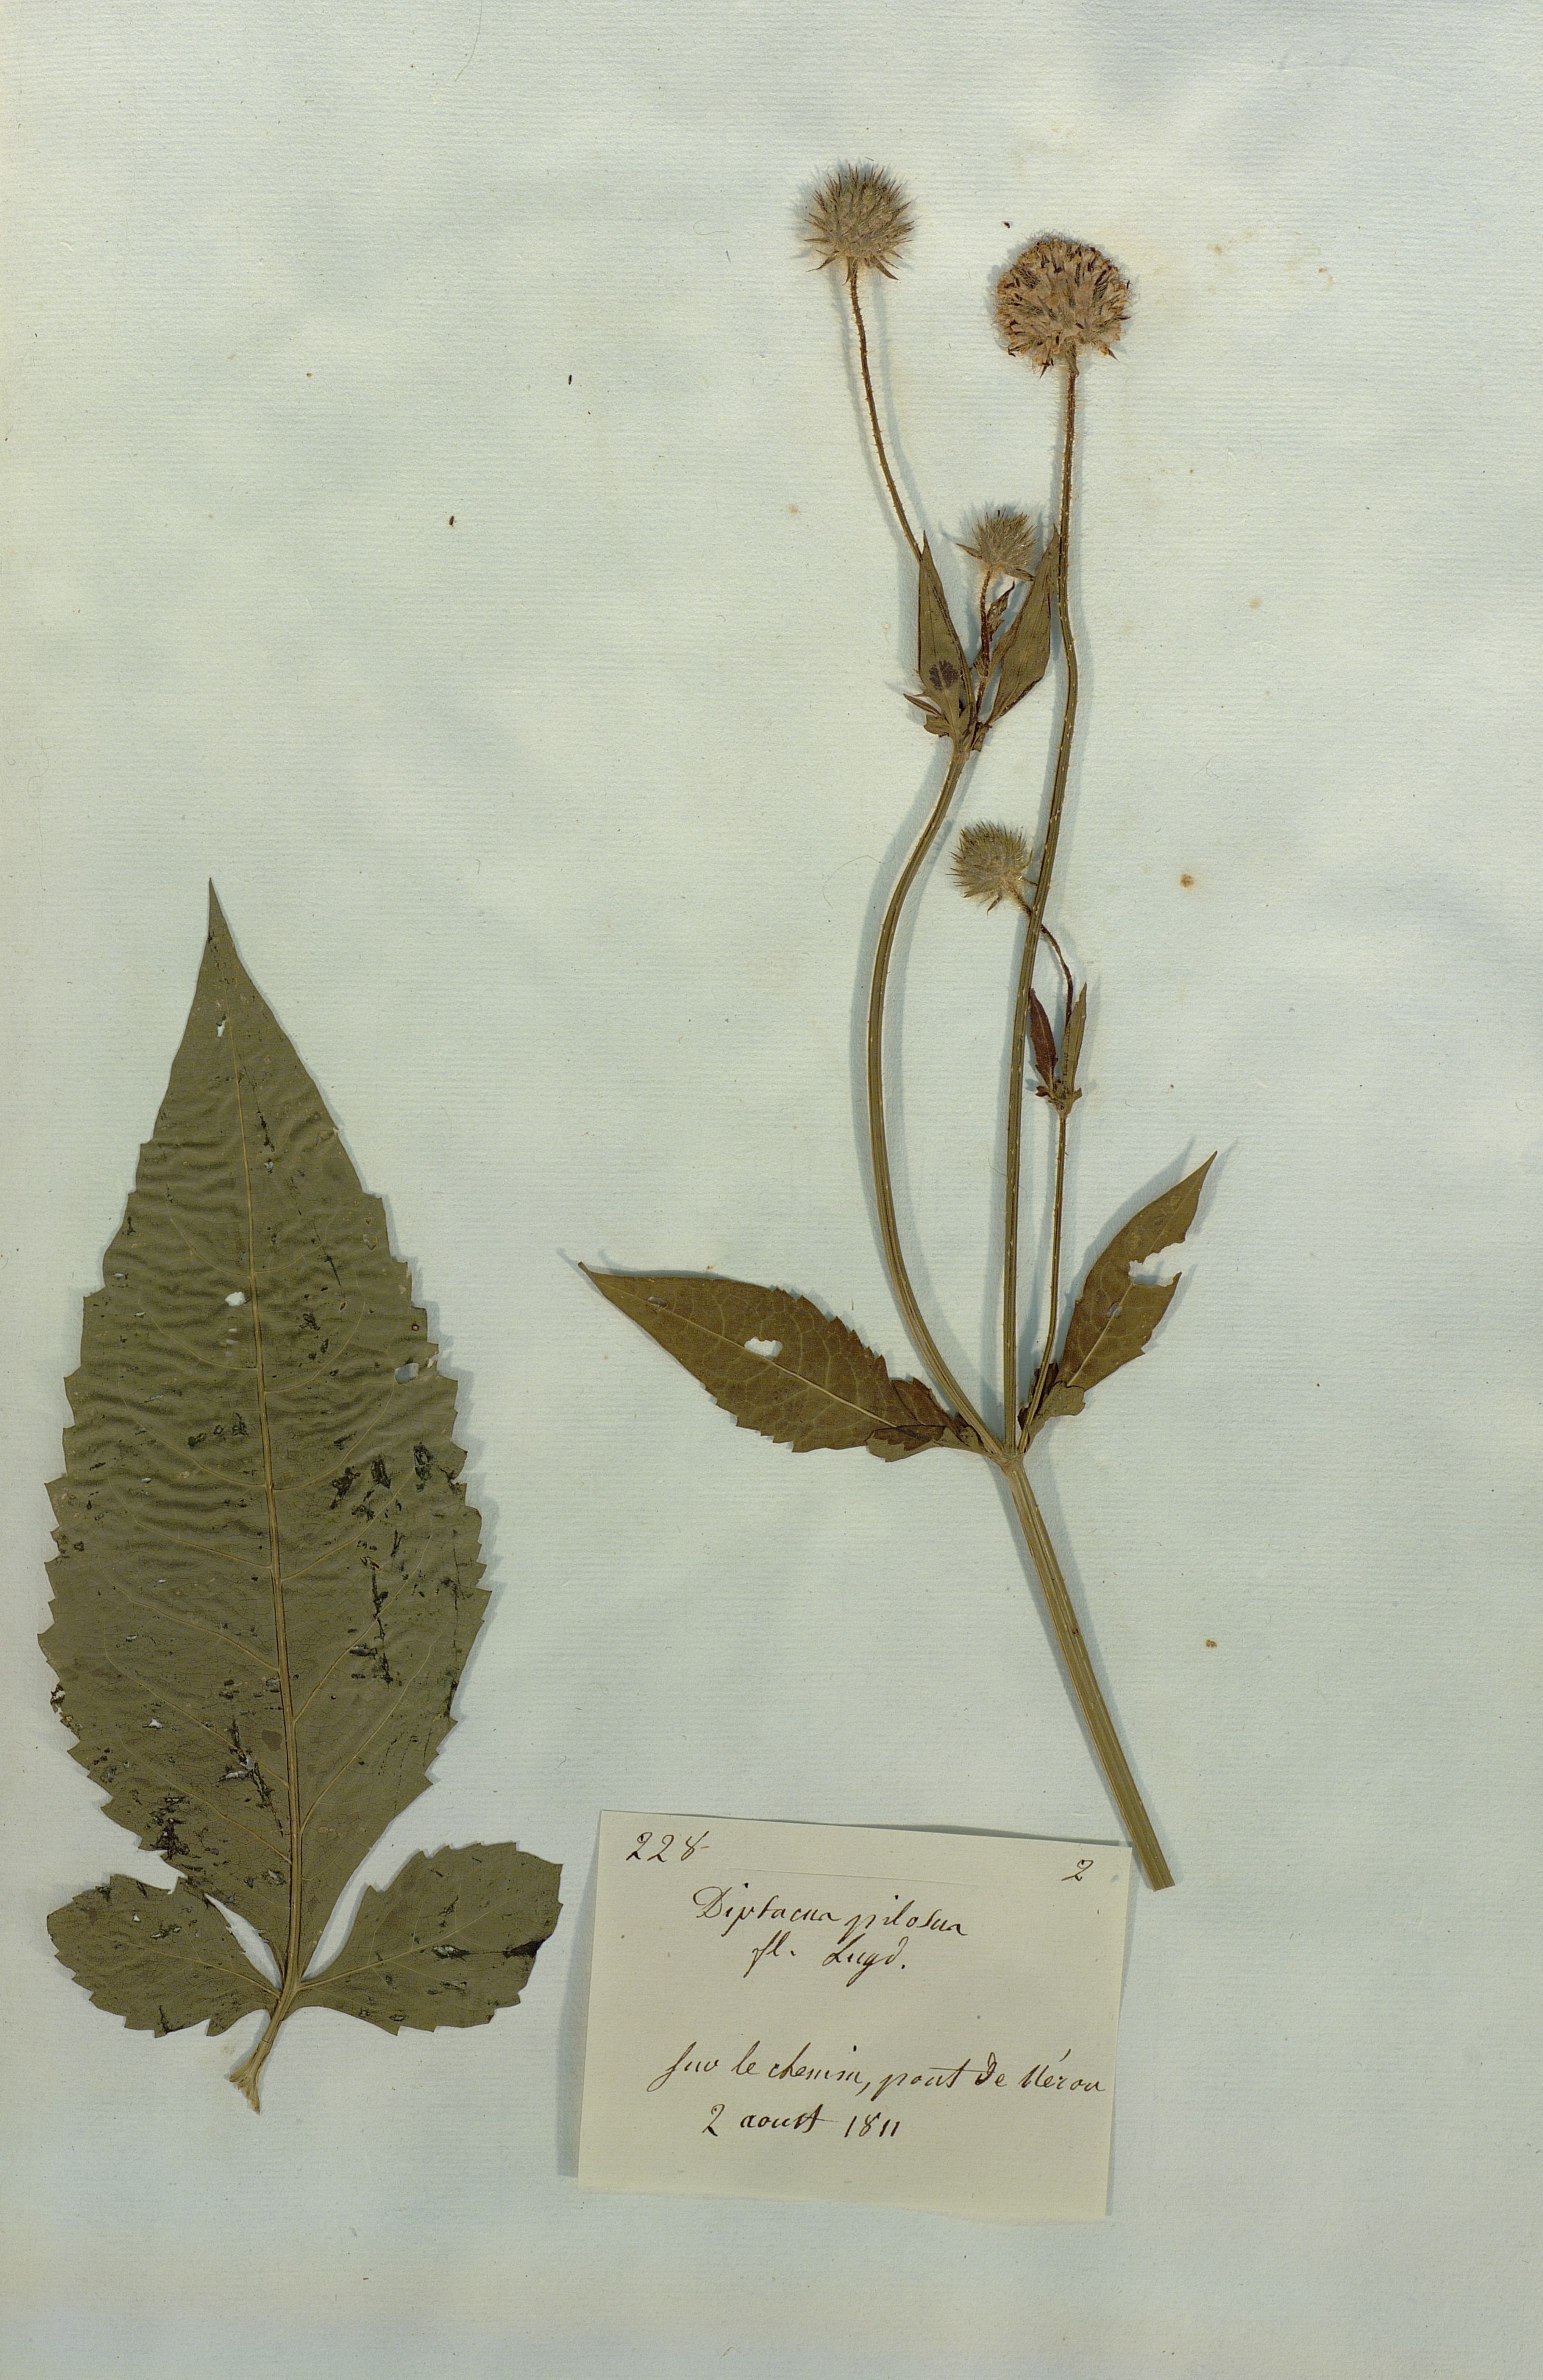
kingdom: Plantae
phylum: Tracheophyta
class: Magnoliopsida
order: Dipsacales
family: Caprifoliaceae
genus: Dipsacus
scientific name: Dipsacus pilosus
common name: Small teasel
